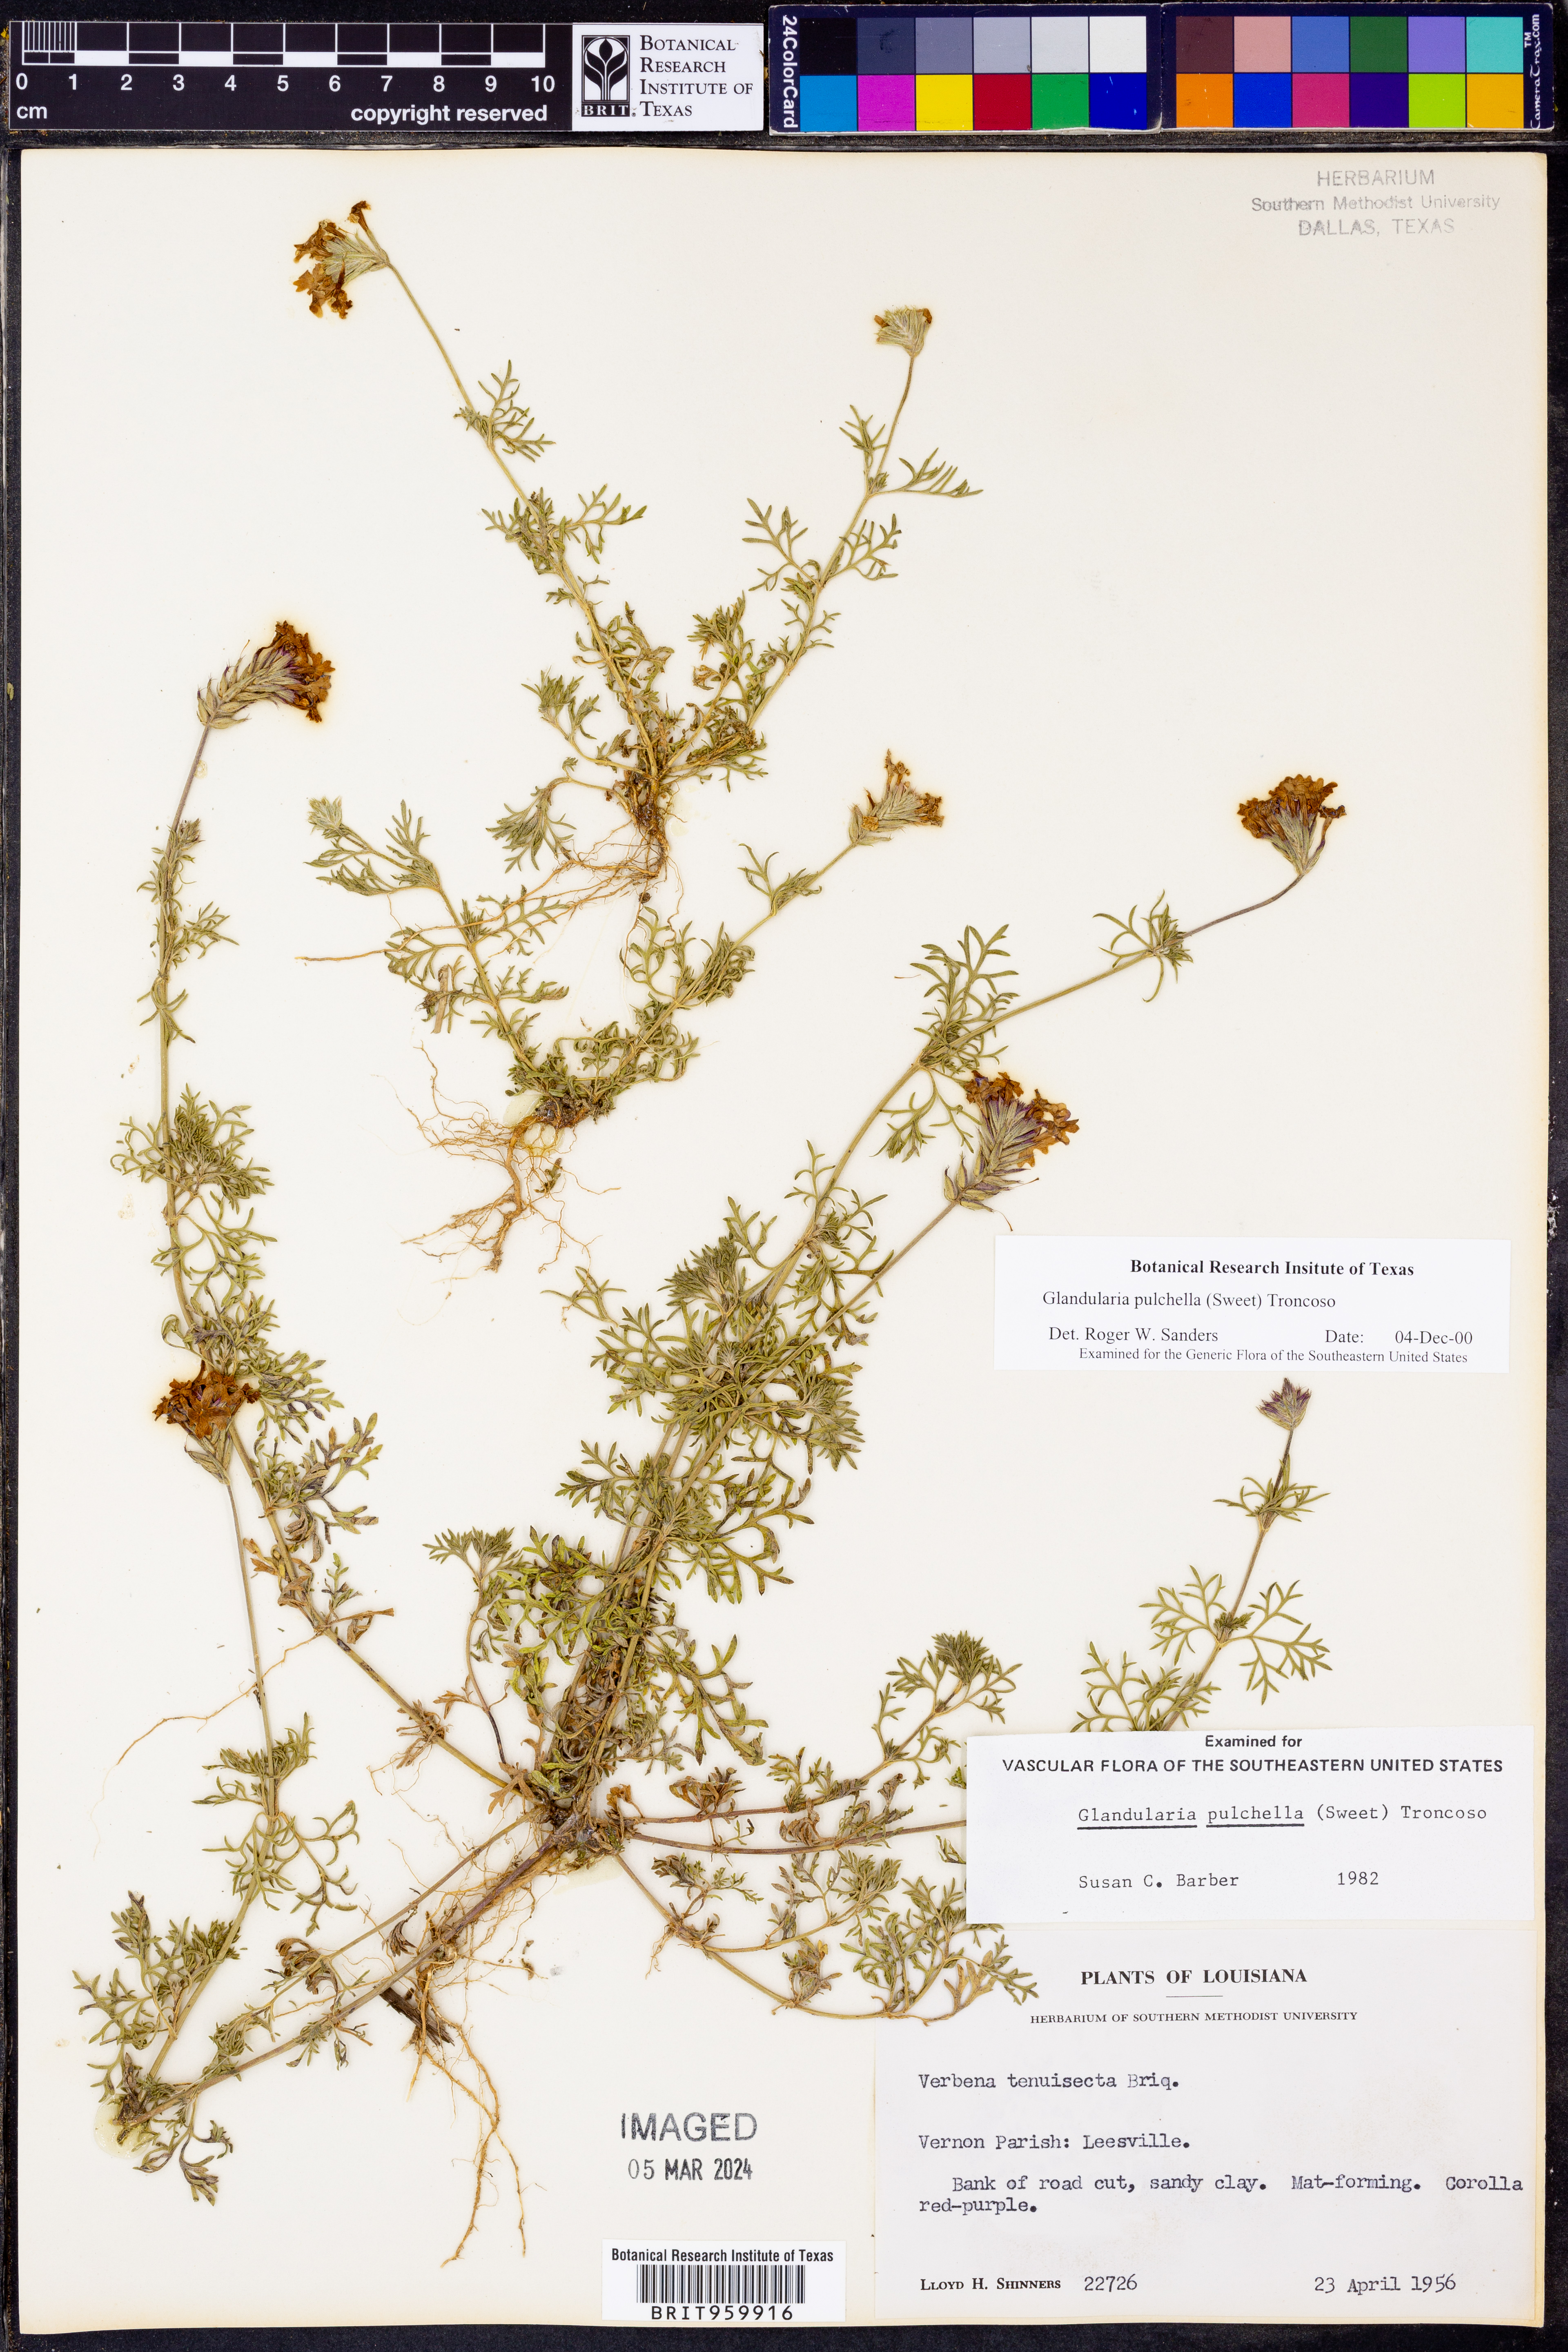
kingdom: Plantae
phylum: Tracheophyta
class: Magnoliopsida
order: Lamiales
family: Verbenaceae
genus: Verbena
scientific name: Verbena tenera
